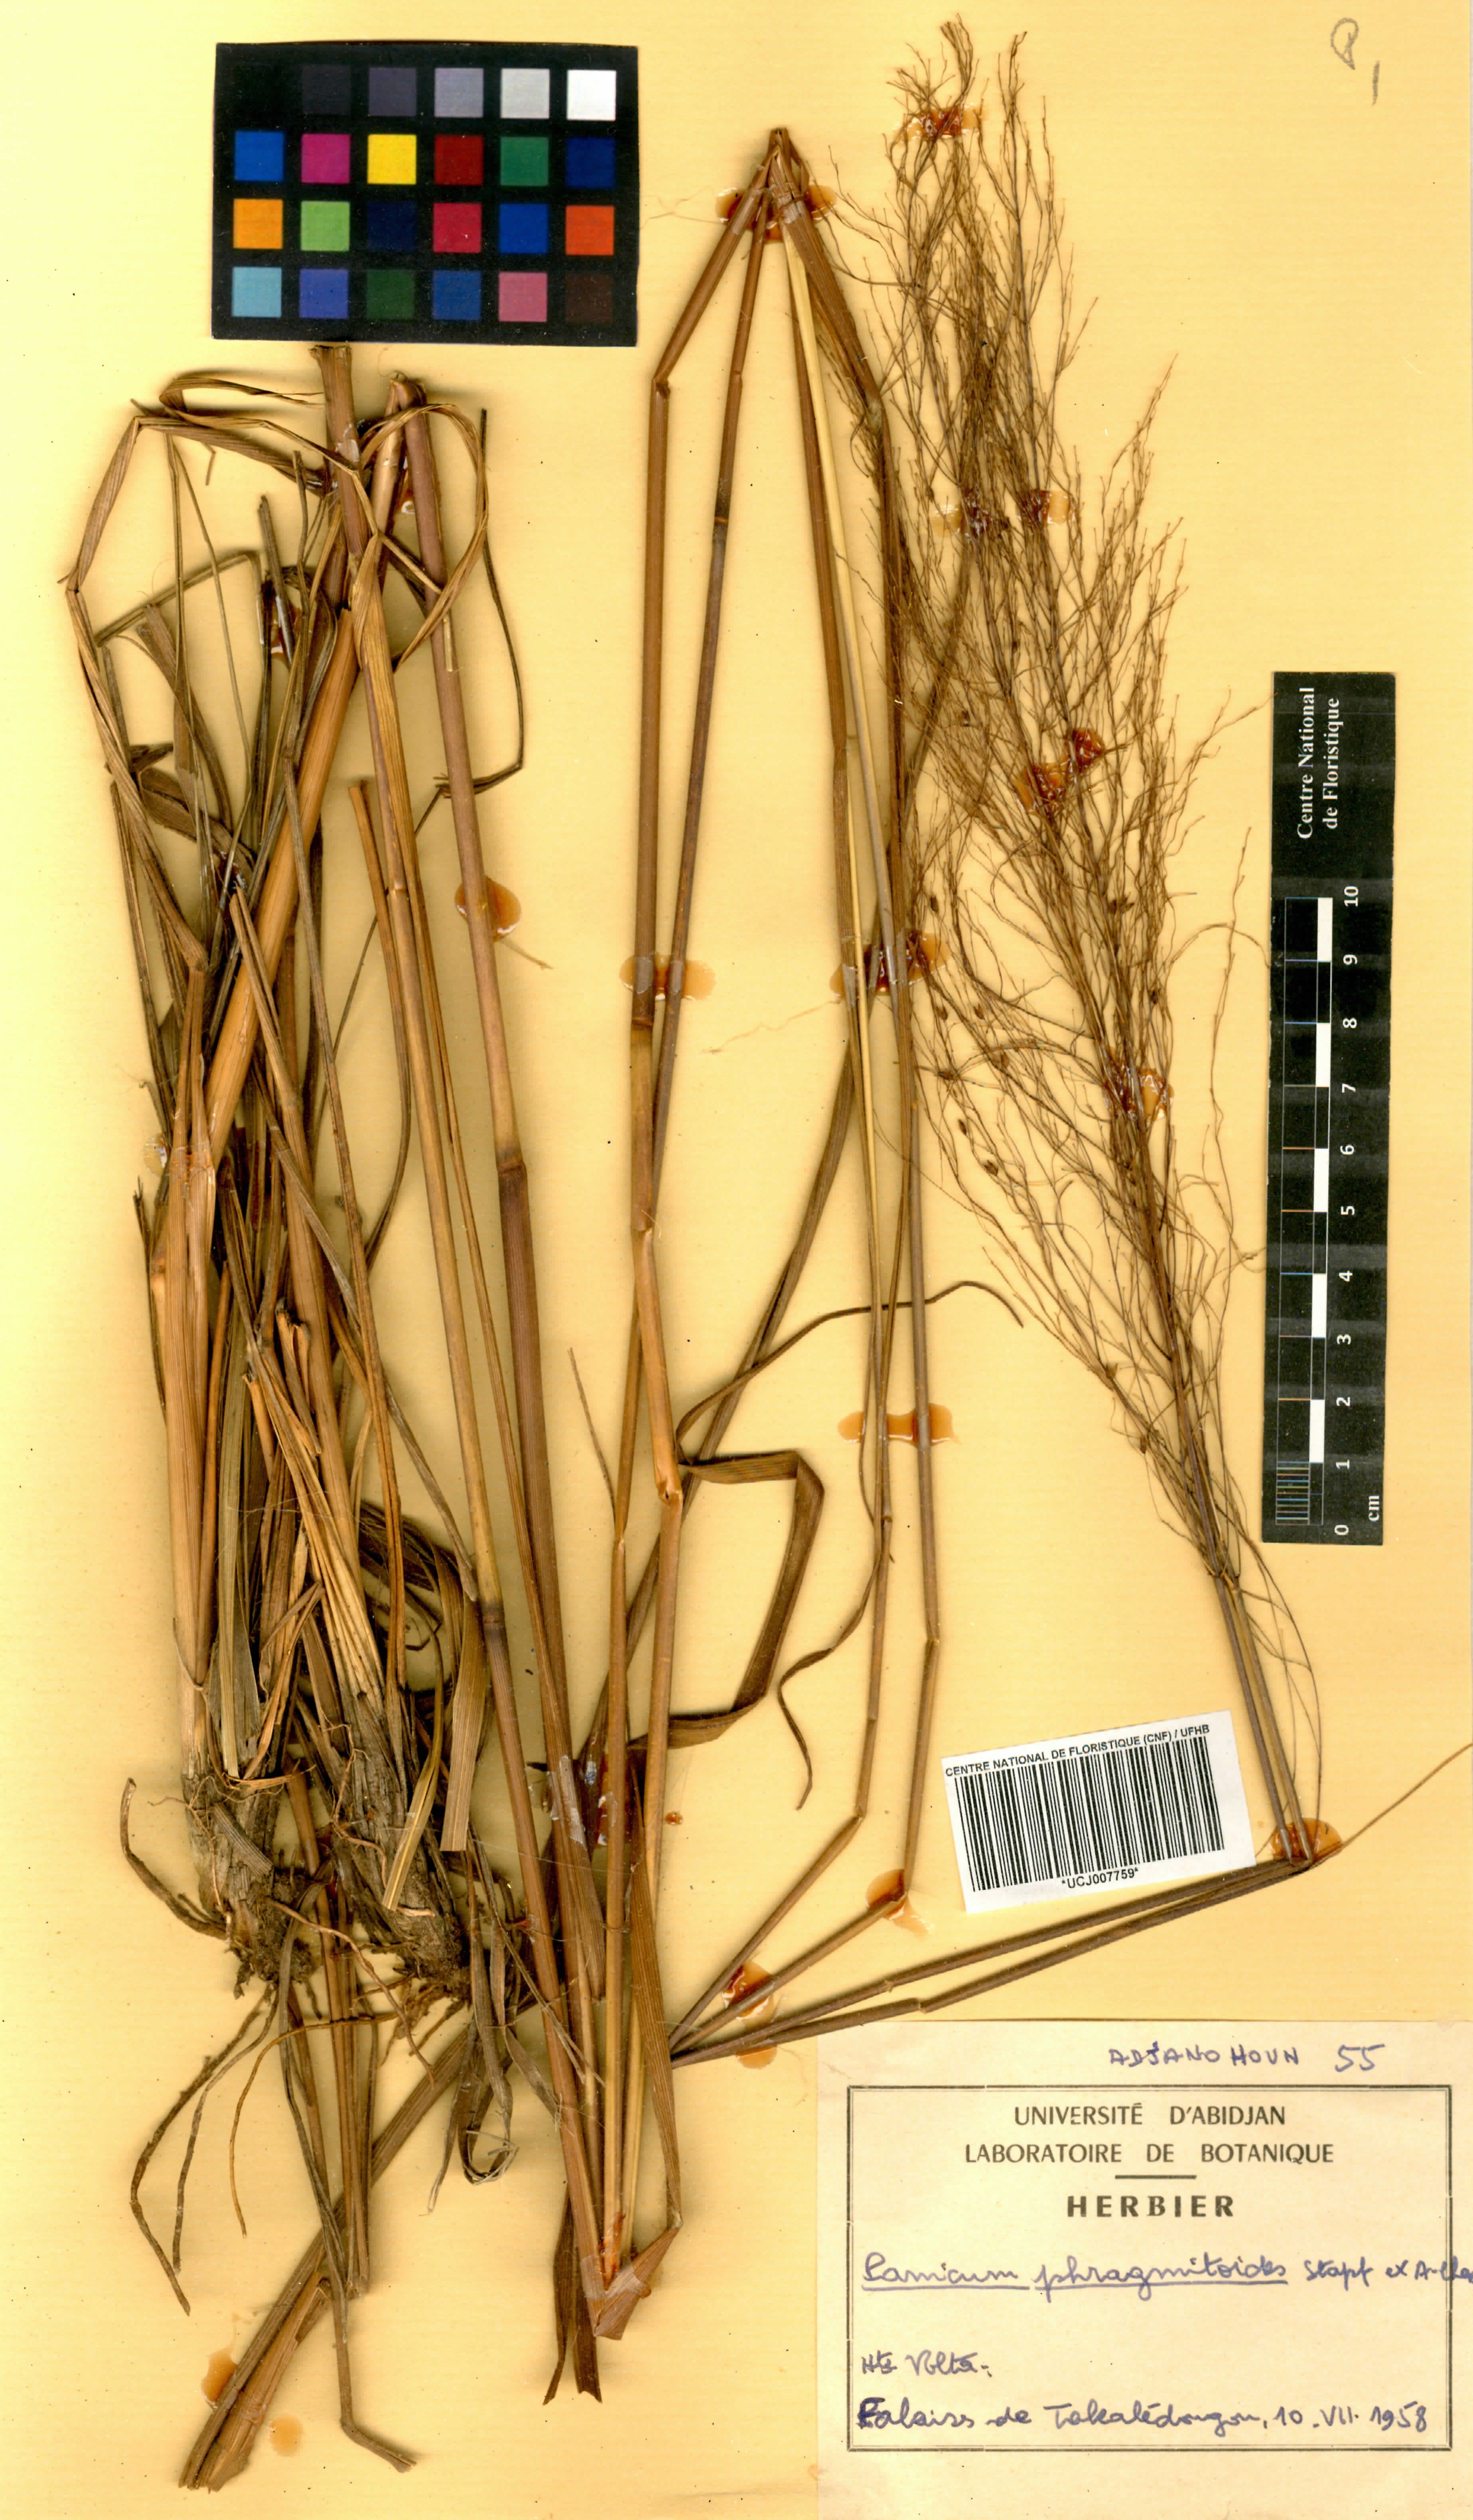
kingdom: Plantae
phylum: Tracheophyta
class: Liliopsida
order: Poales
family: Poaceae
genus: Panicum
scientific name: Panicum phragmitoides
